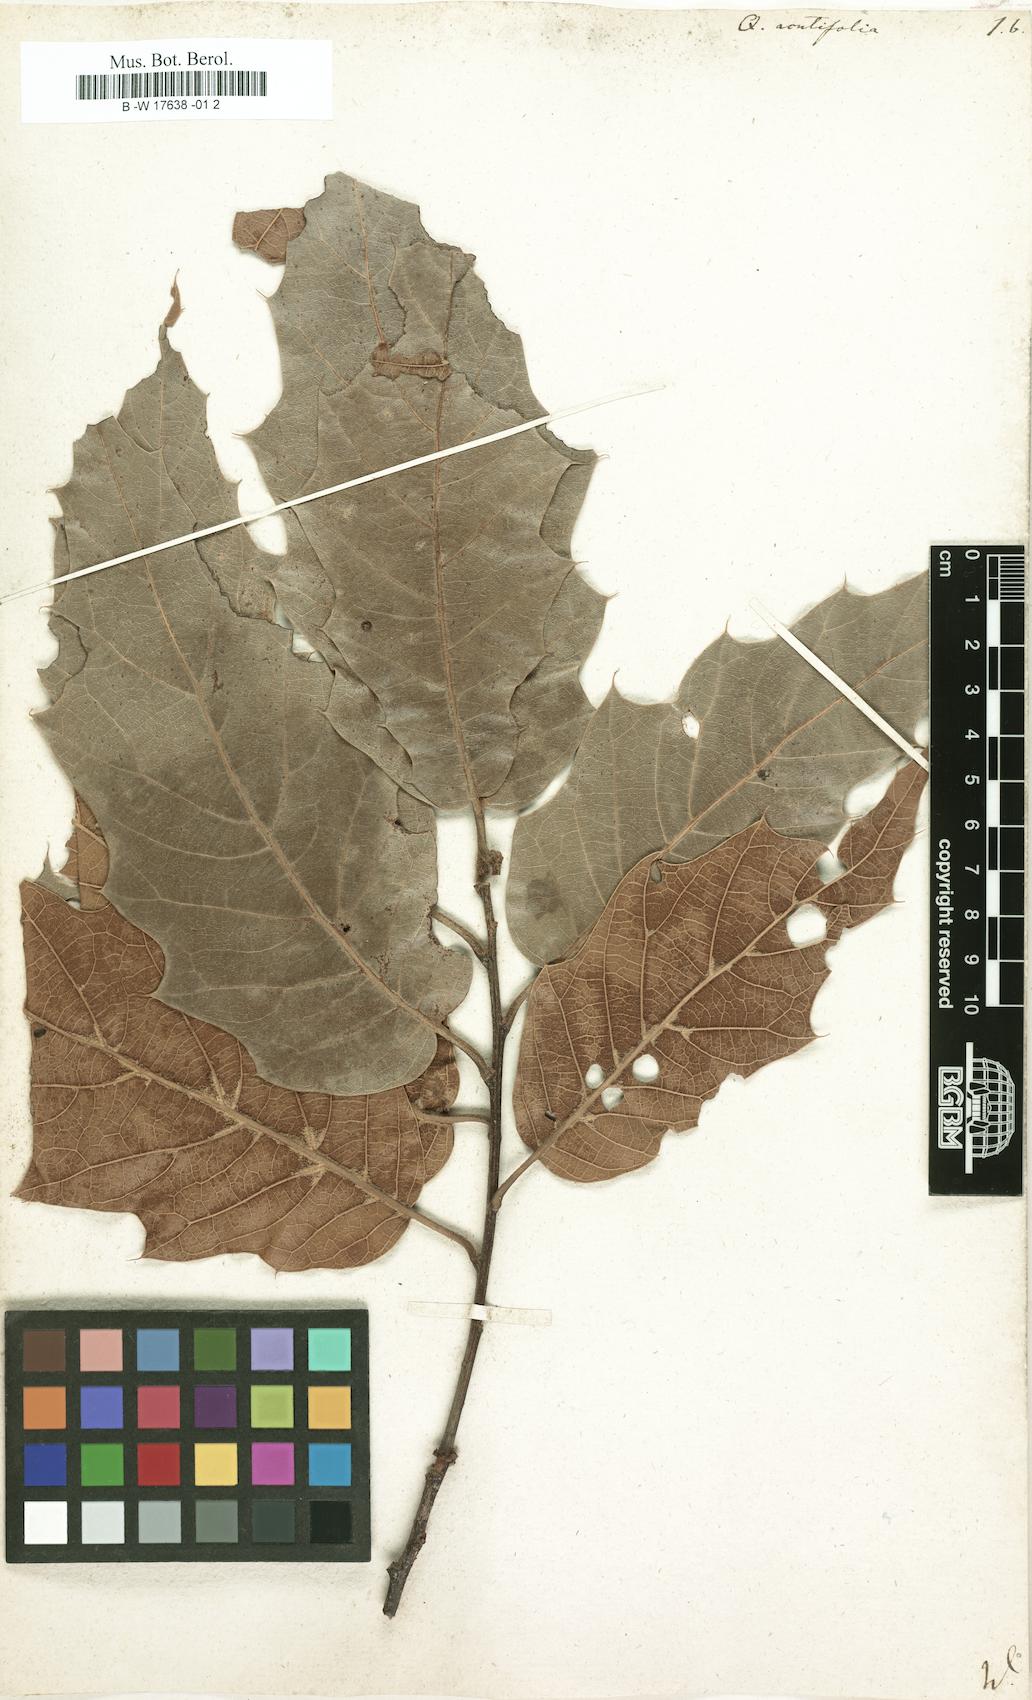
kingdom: Plantae
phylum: Tracheophyta
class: Magnoliopsida
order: Fagales
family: Fagaceae
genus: Quercus
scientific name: Quercus acutifolia
